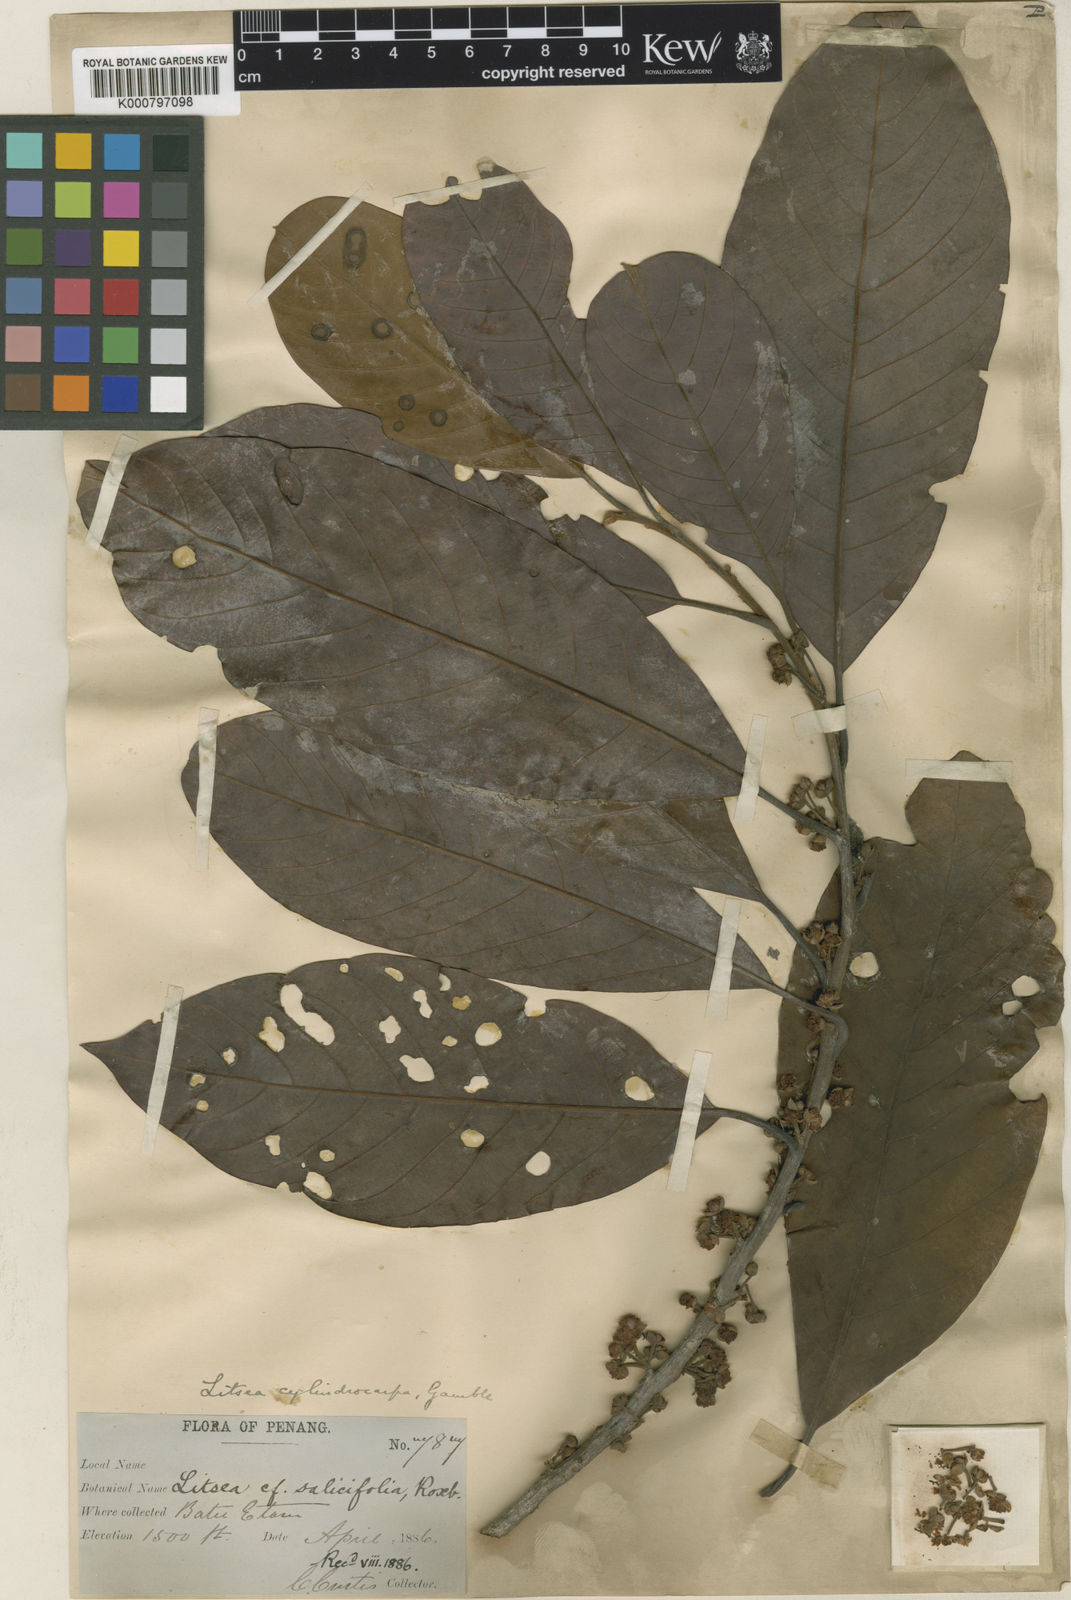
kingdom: Plantae
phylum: Tracheophyta
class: Magnoliopsida
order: Laurales
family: Lauraceae
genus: Litsea
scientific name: Litsea umbellata
